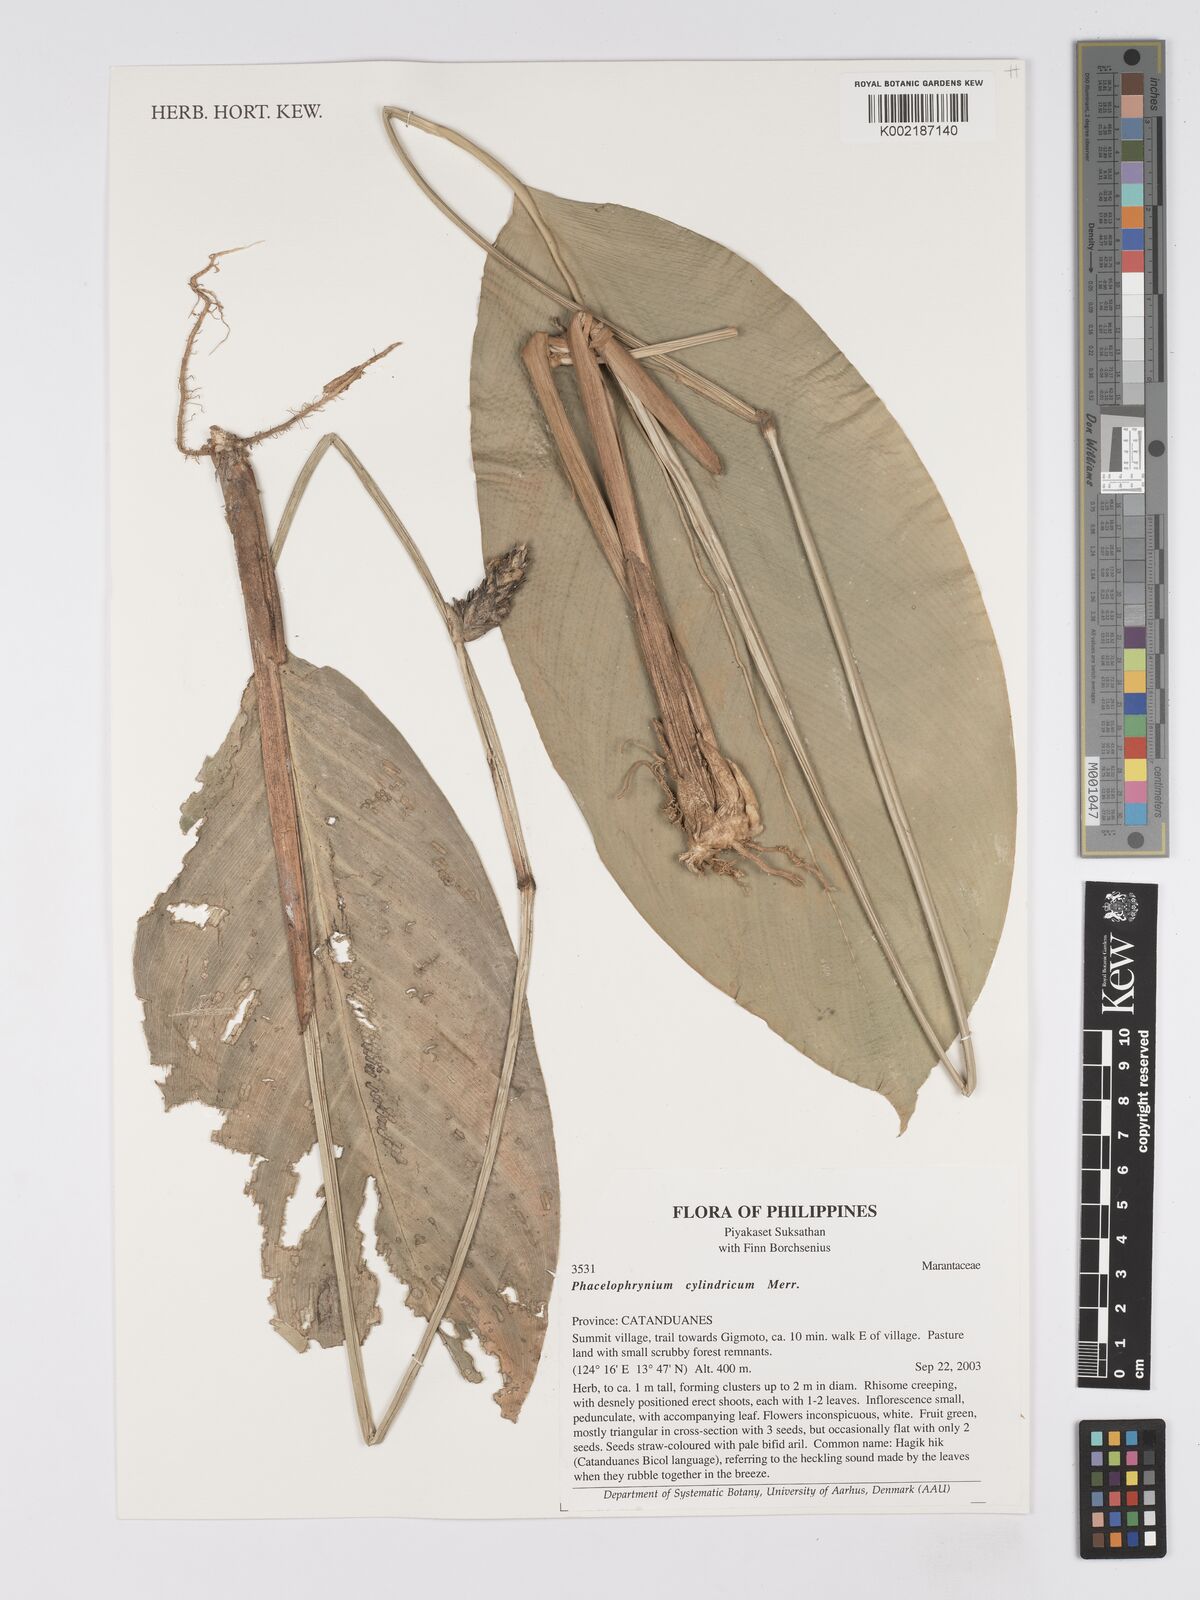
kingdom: Plantae
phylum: Tracheophyta
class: Liliopsida
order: Zingiberales
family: Marantaceae
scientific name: Marantaceae
